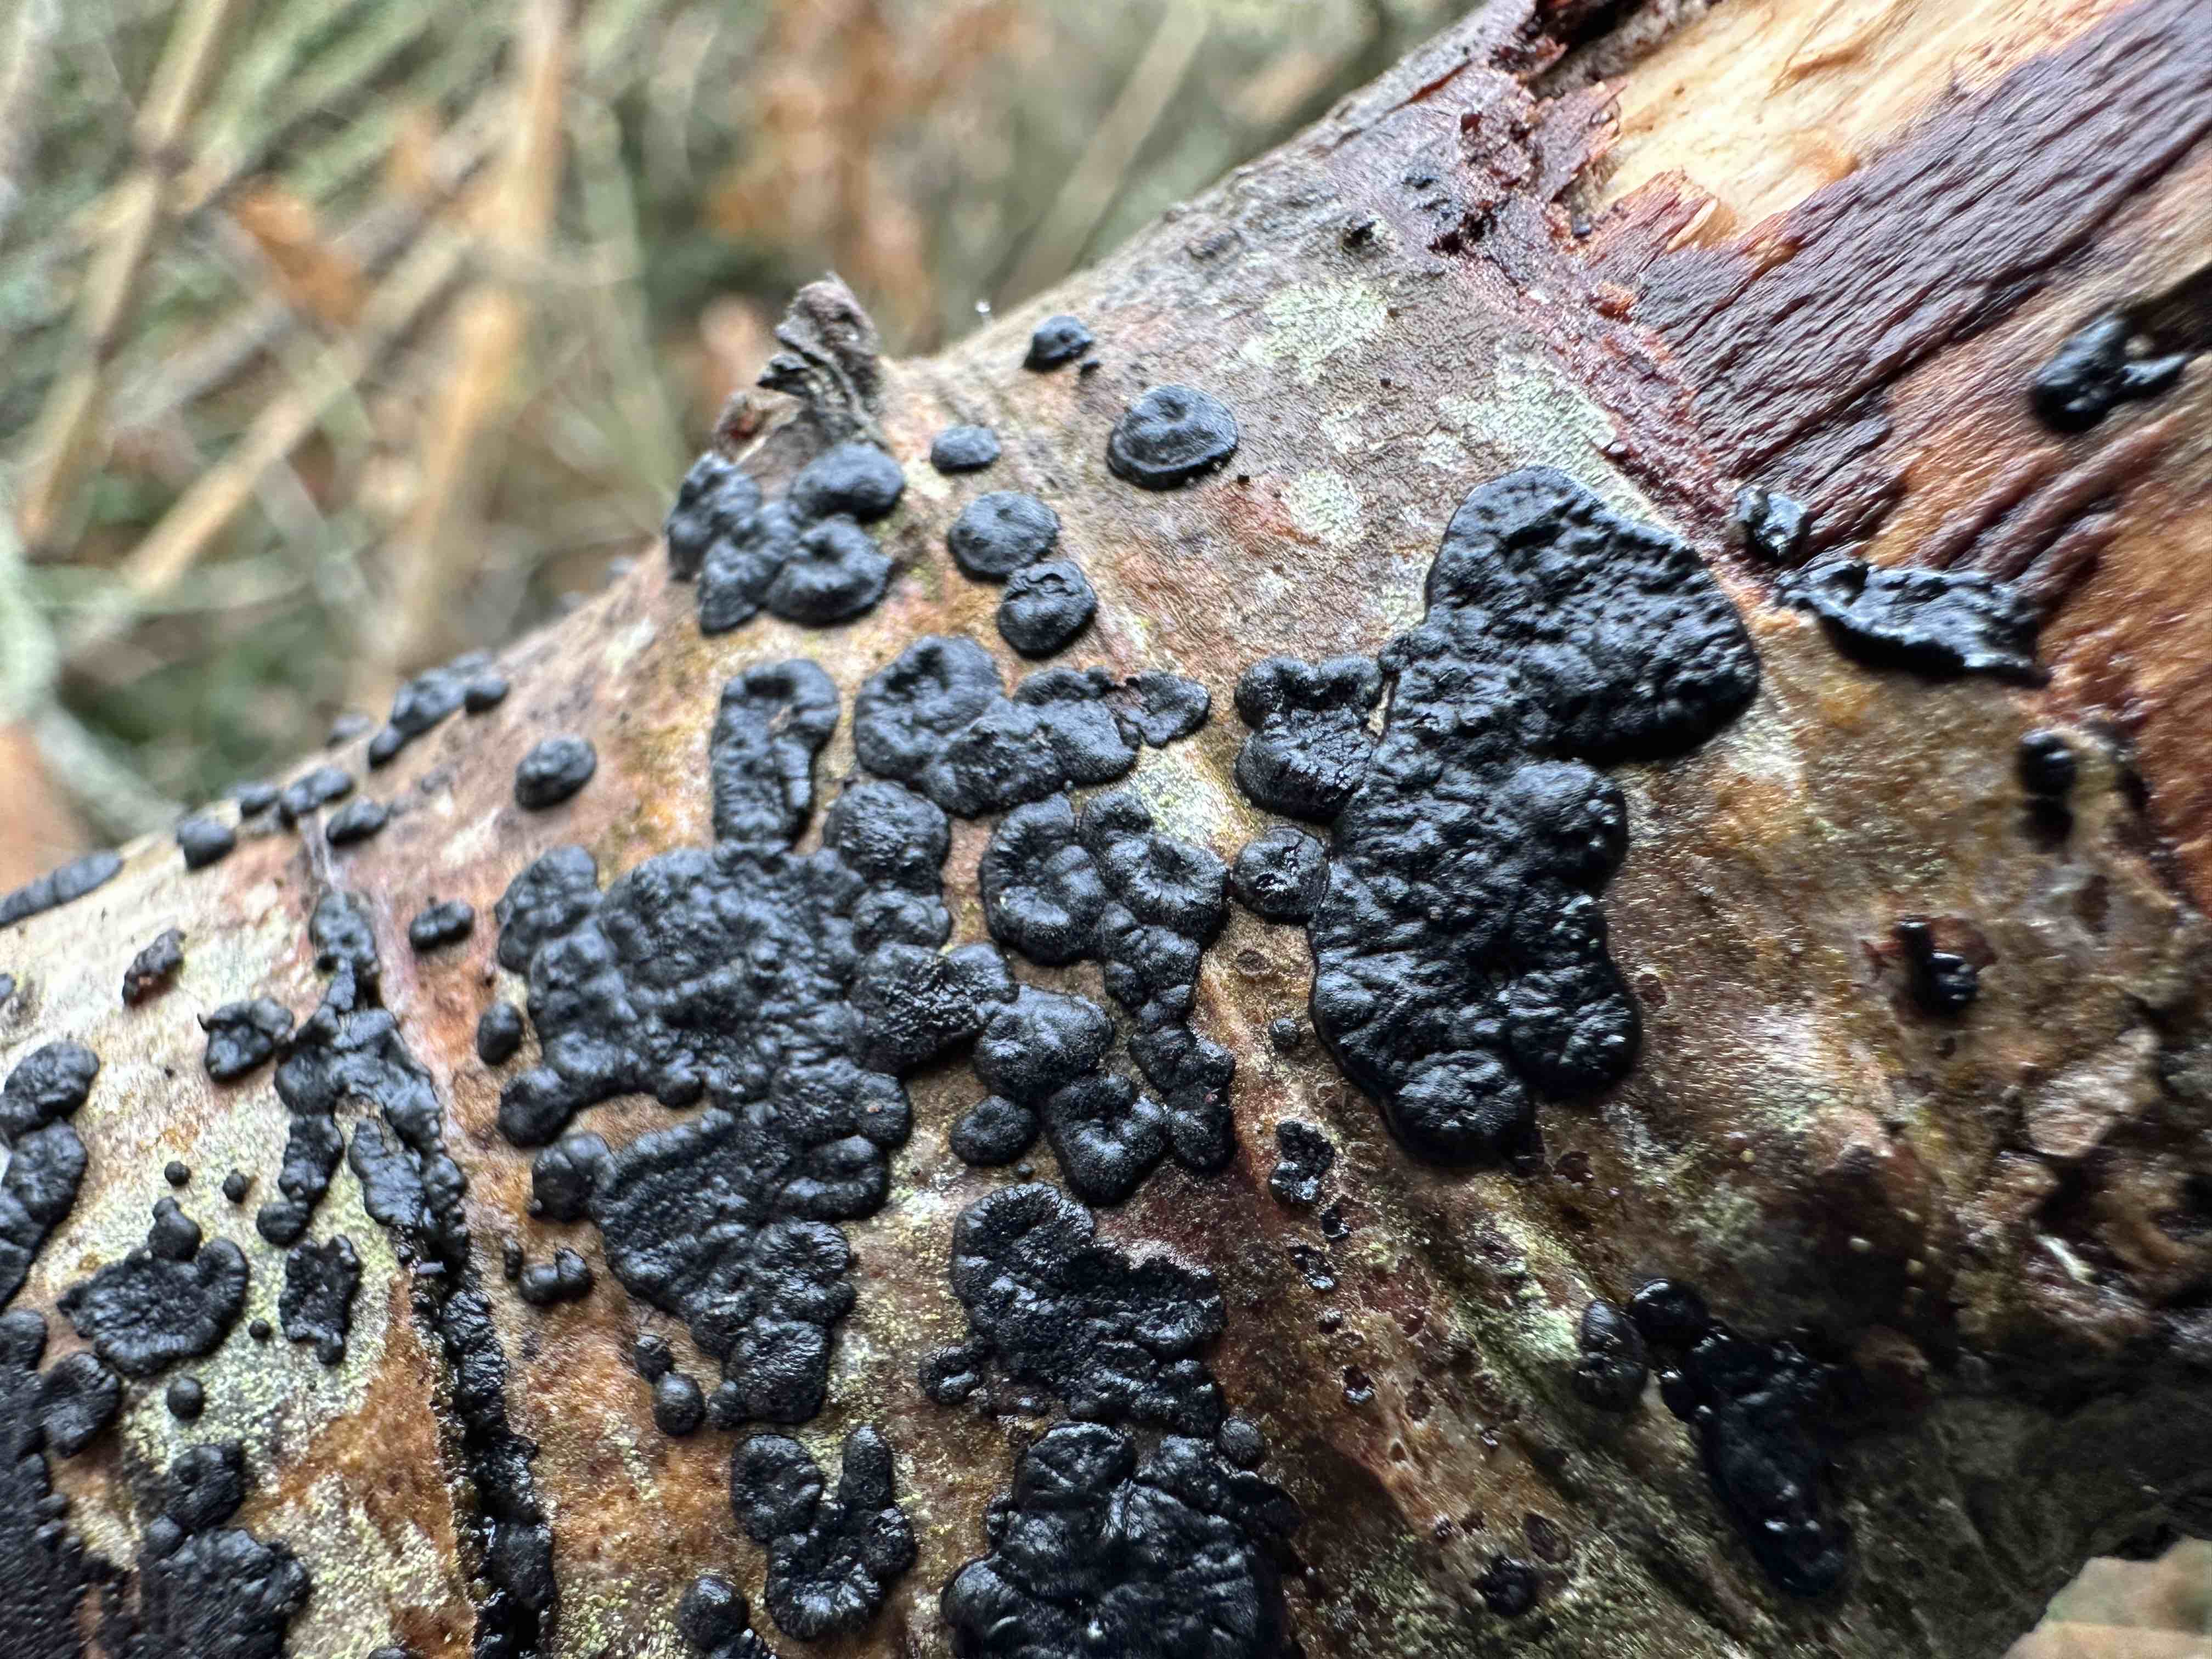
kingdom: Fungi
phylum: Basidiomycota
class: Agaricomycetes
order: Auriculariales
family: Auriculariaceae
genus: Exidia
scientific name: Exidia pithya
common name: gran-bævretop
